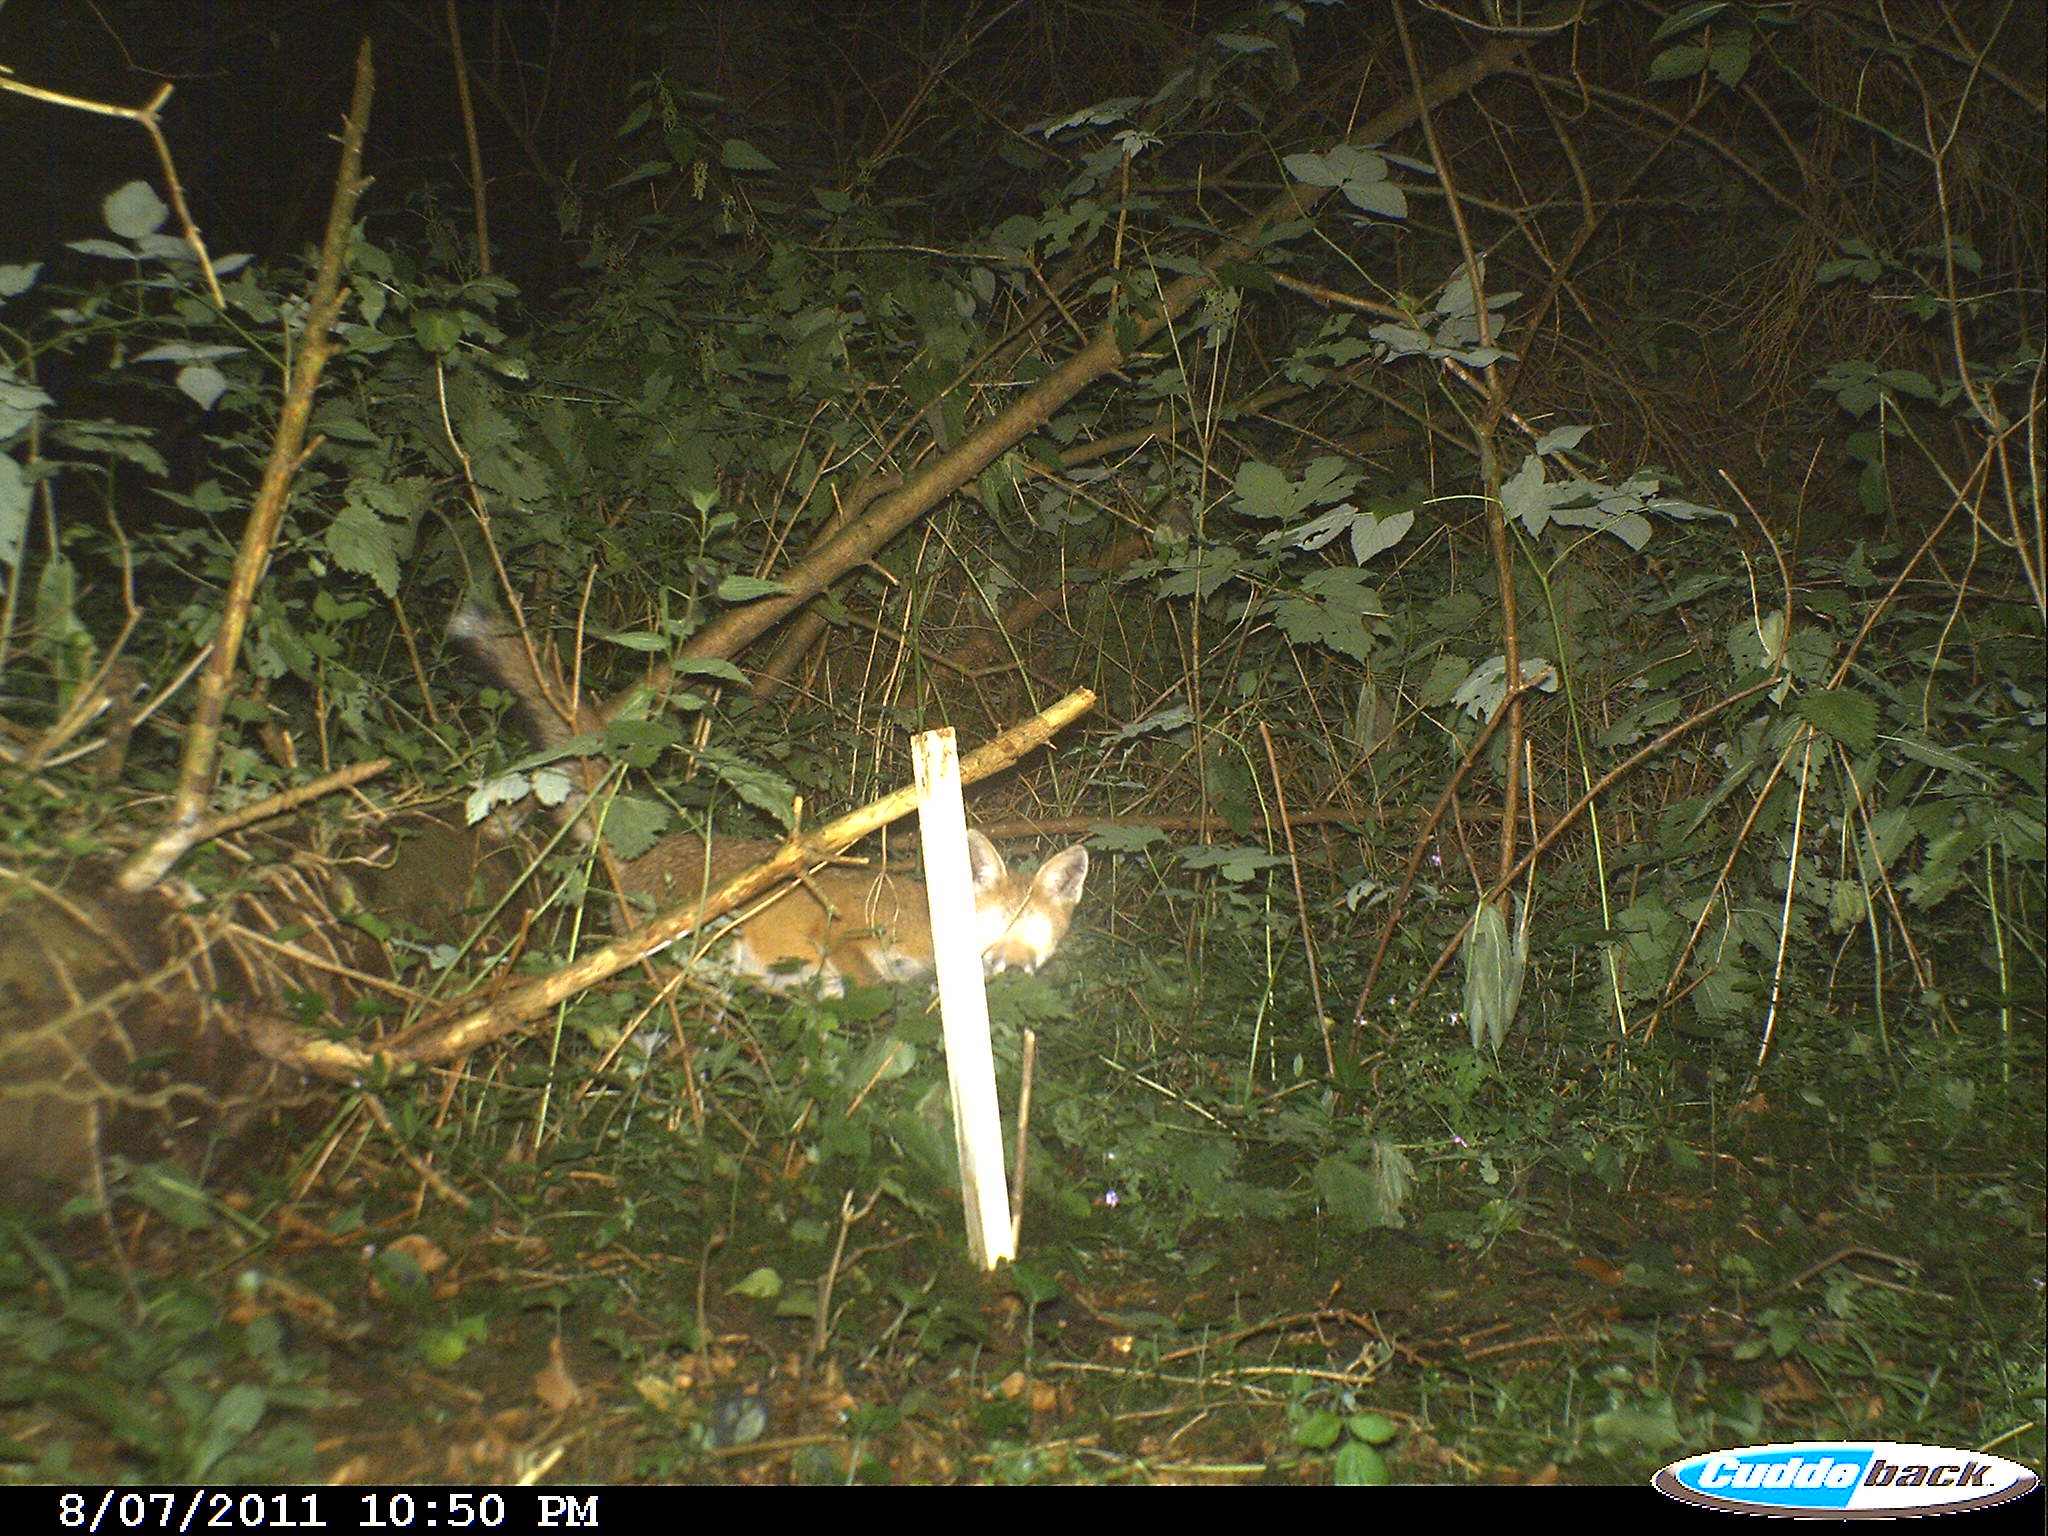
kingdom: Animalia
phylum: Chordata
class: Mammalia
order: Carnivora
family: Canidae
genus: Vulpes
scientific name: Vulpes vulpes
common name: Red fox
